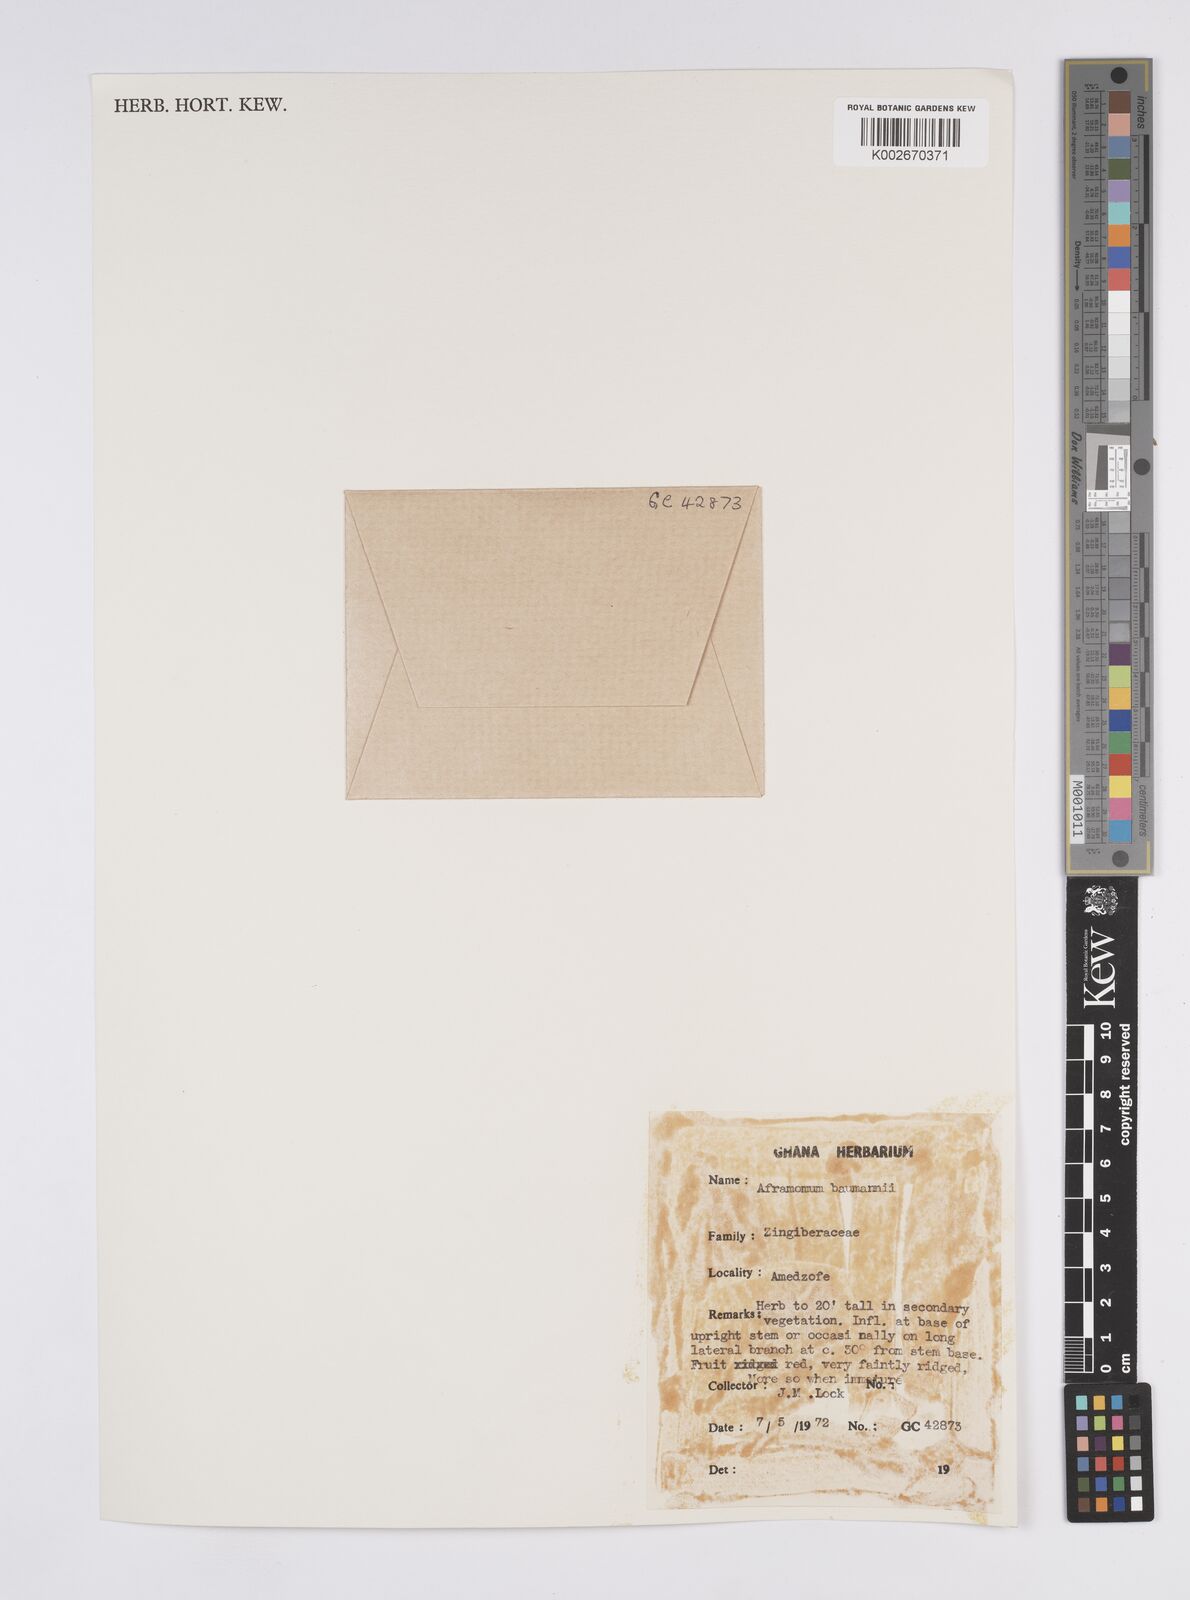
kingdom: Plantae
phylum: Tracheophyta
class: Liliopsida
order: Zingiberales
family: Zingiberaceae
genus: Aframomum
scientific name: Aframomum angustifolium
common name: Guinea grains
